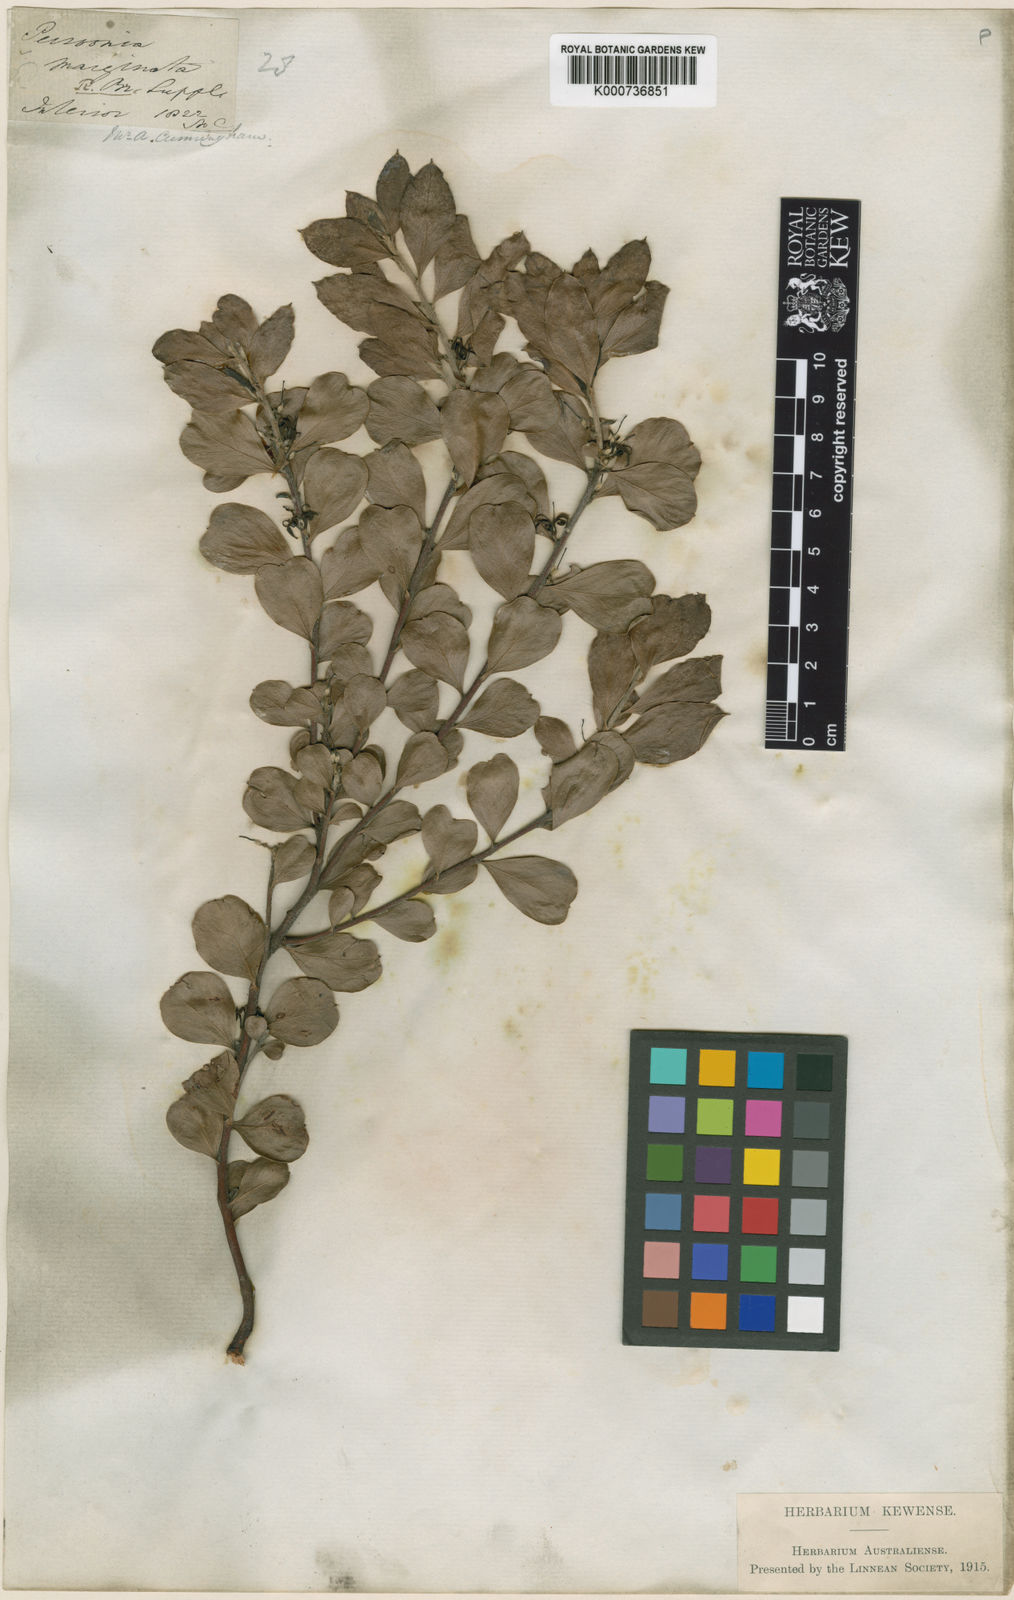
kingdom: Plantae
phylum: Tracheophyta
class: Magnoliopsida
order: Proteales
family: Proteaceae
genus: Persoonia
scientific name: Persoonia marginata
